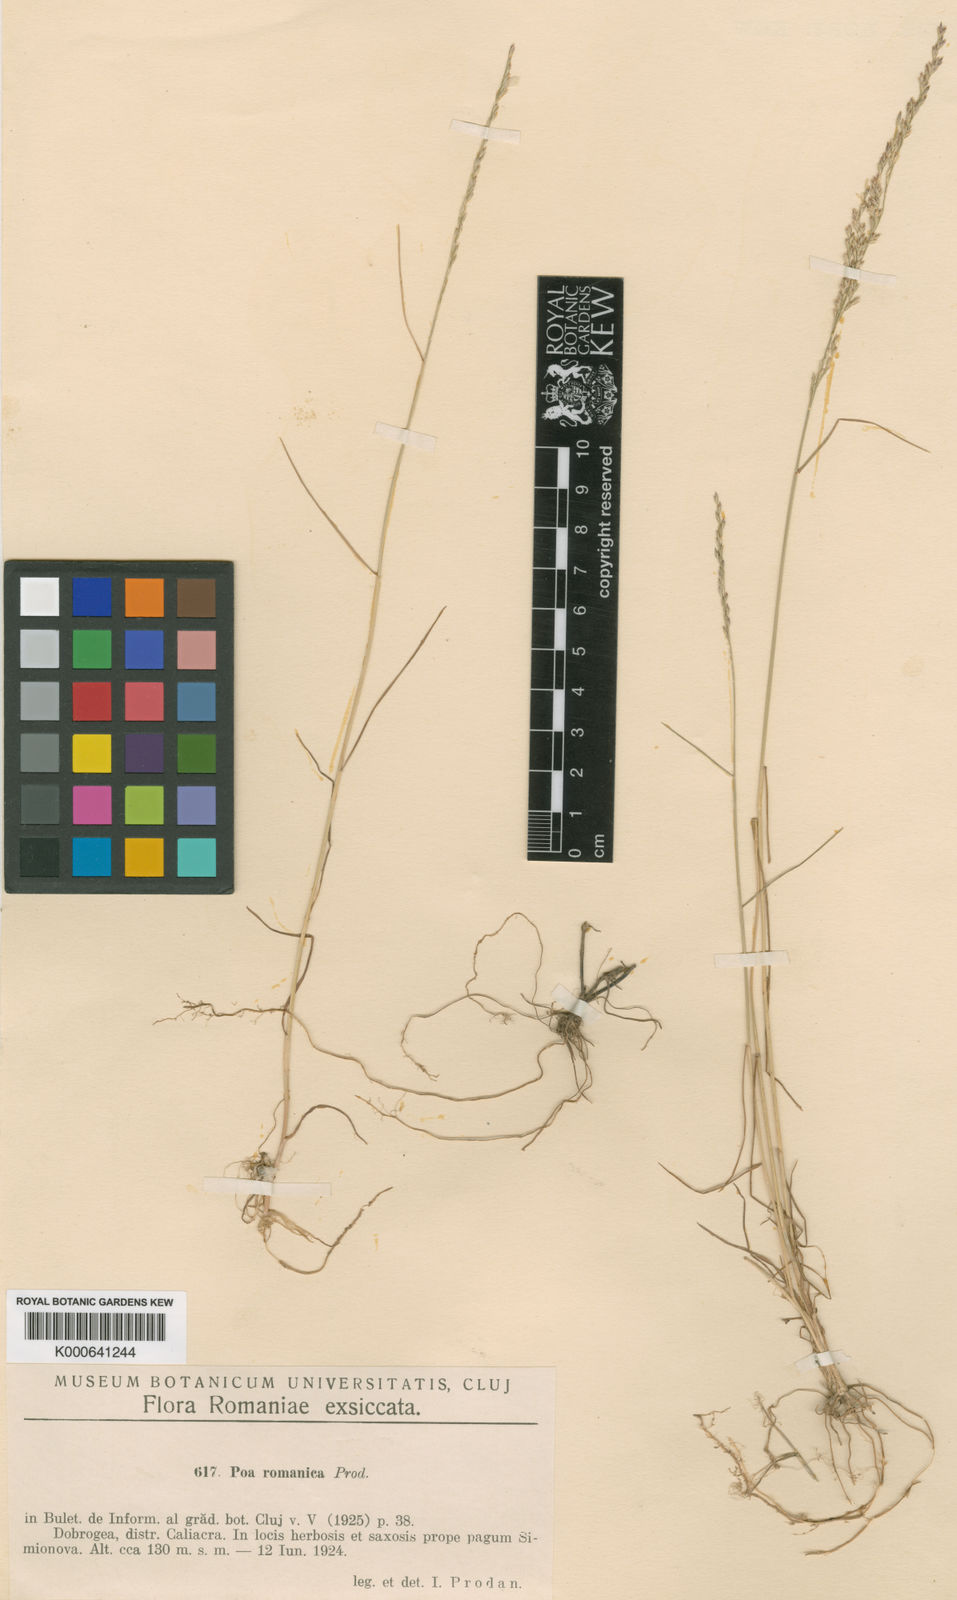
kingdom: Plantae
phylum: Tracheophyta
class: Liliopsida
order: Poales
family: Poaceae
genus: Poa
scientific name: Poa versicolor
